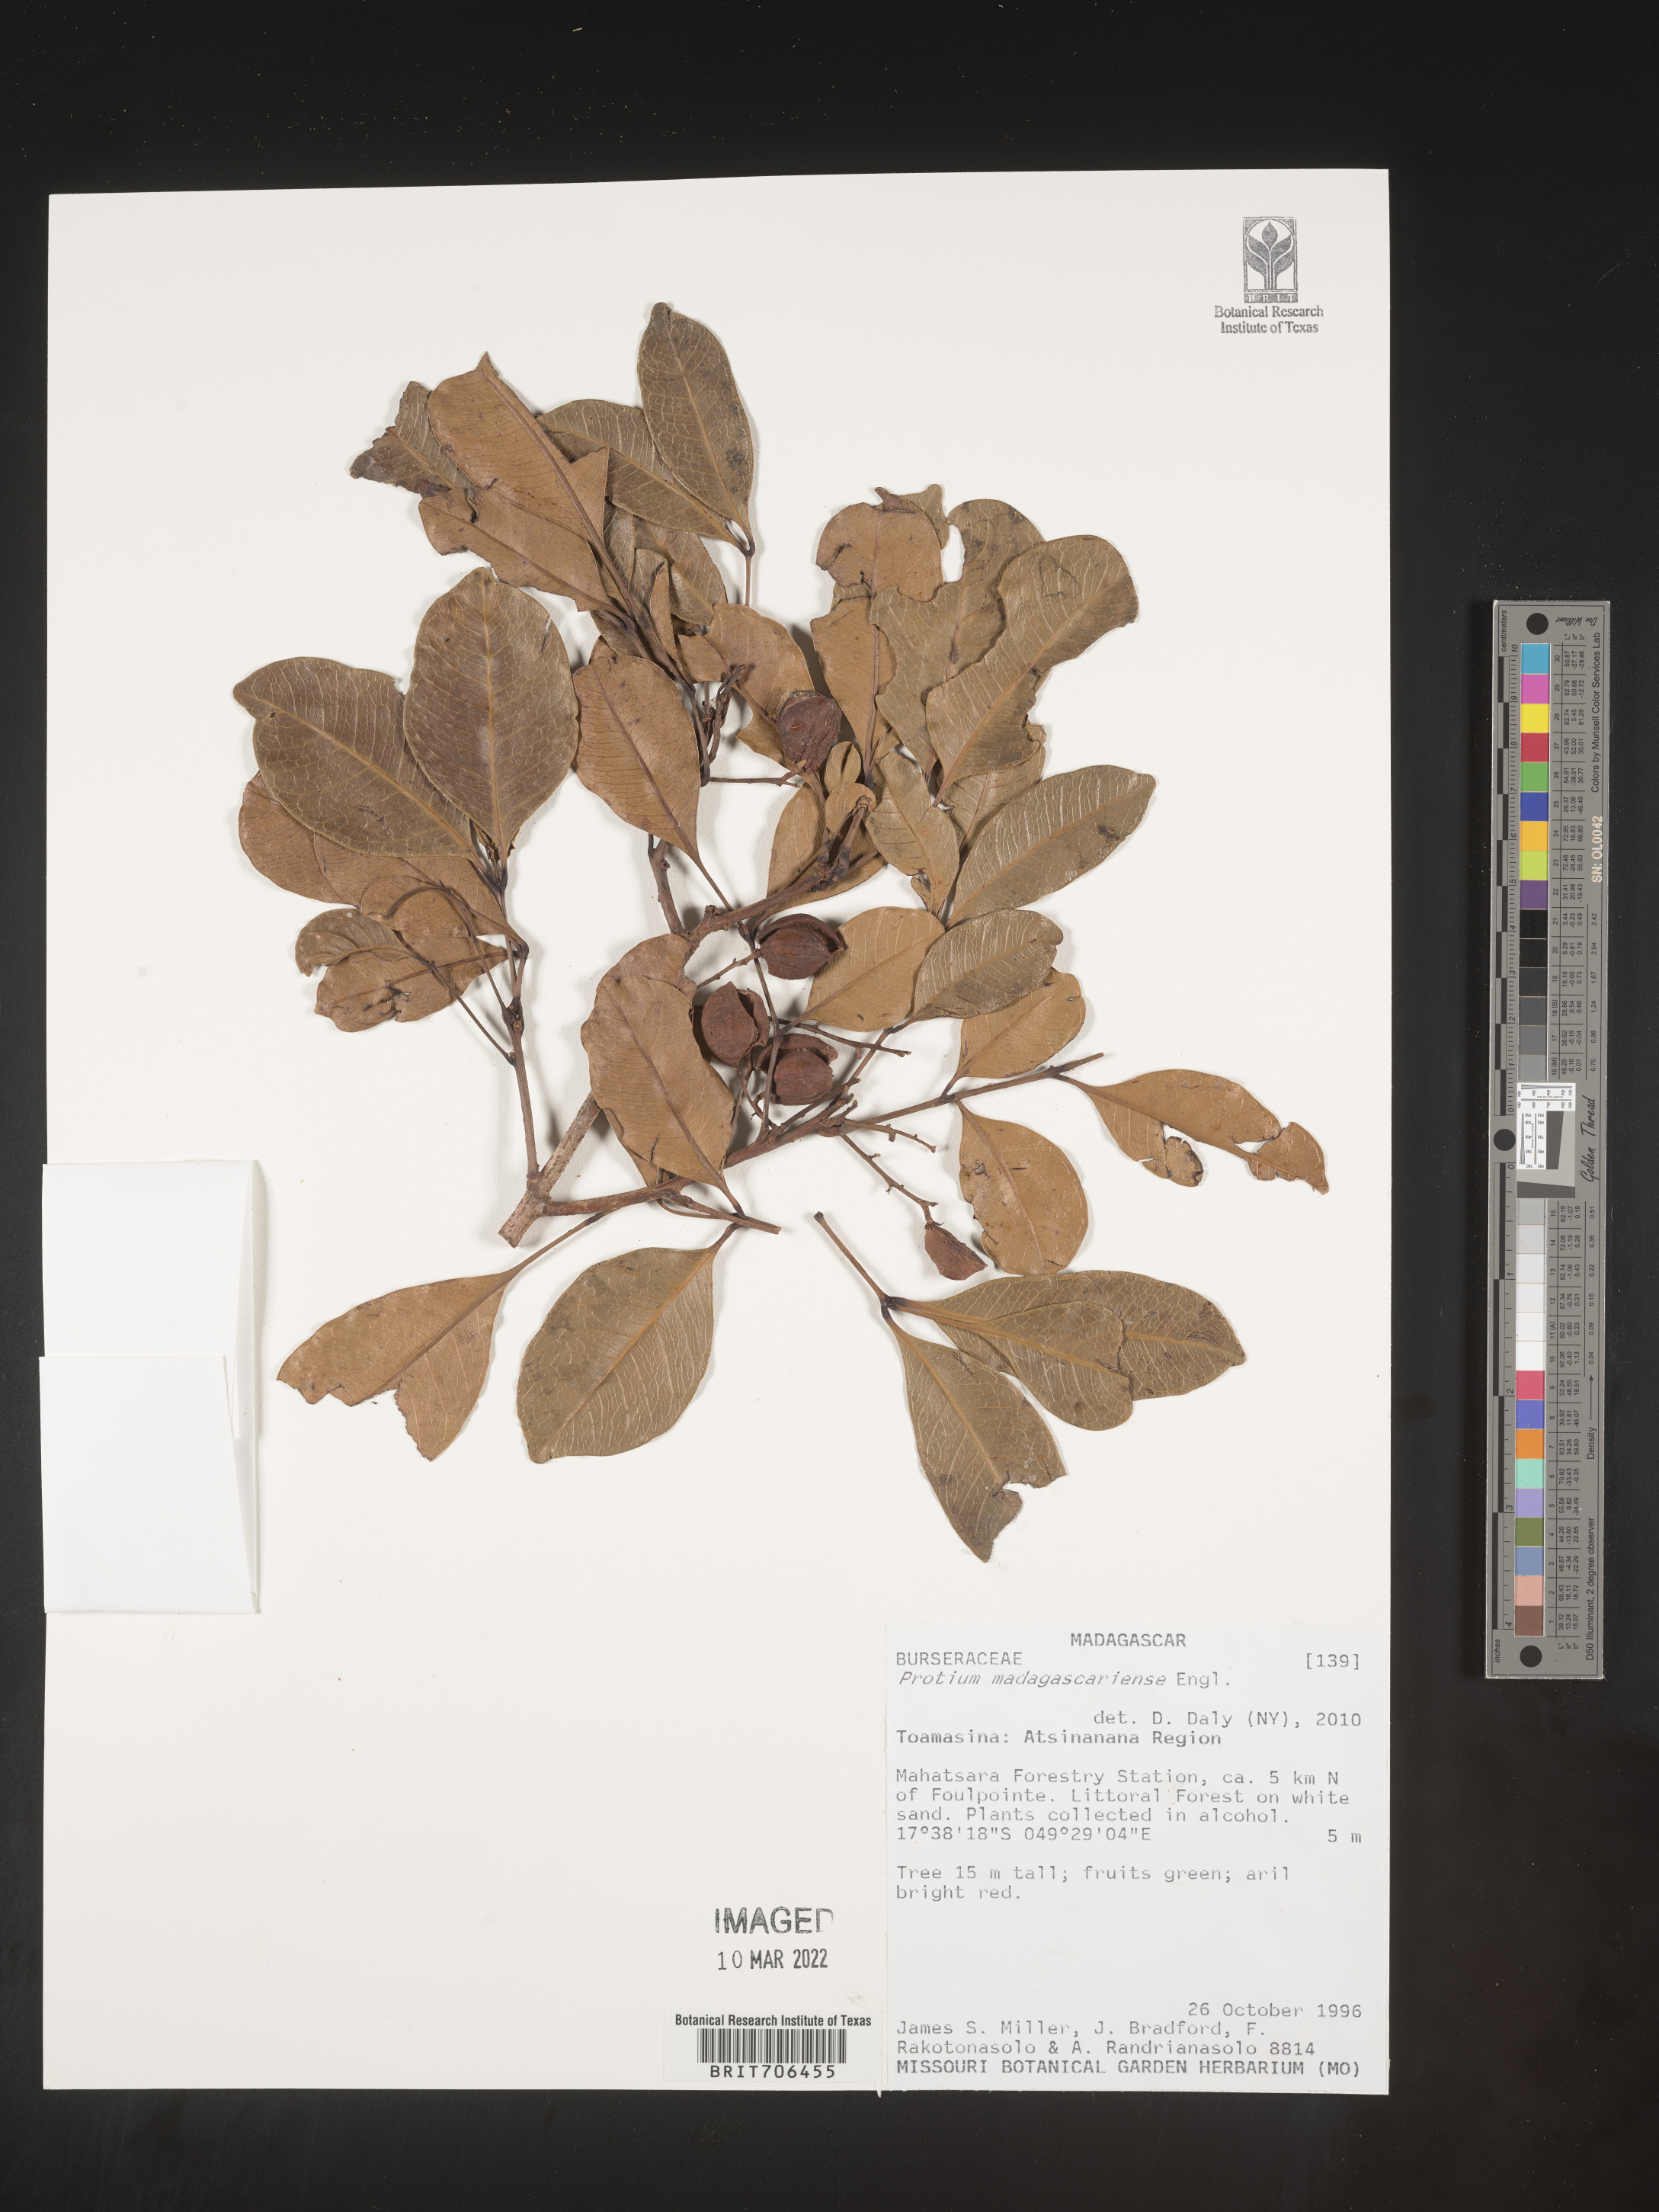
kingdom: Plantae
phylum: Tracheophyta
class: Magnoliopsida
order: Sapindales
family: Burseraceae
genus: Protium
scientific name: Protium
